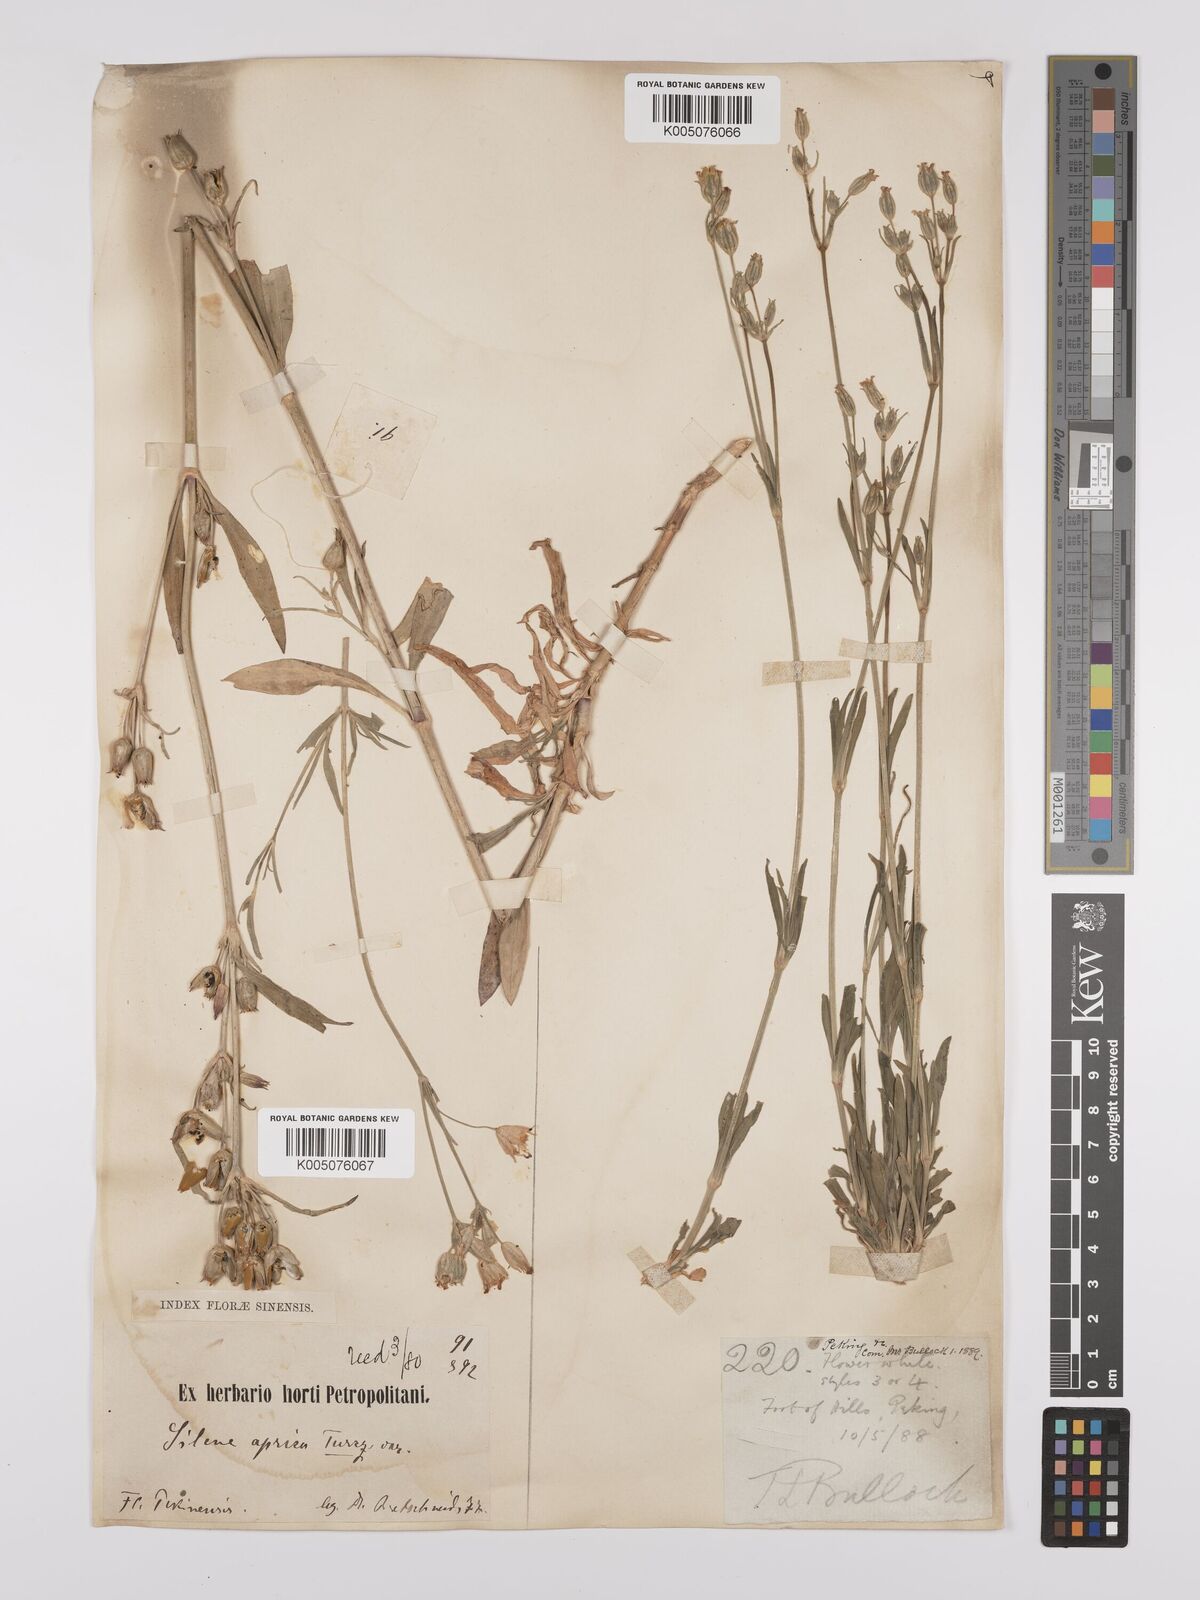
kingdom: Plantae
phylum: Tracheophyta
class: Magnoliopsida
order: Caryophyllales
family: Caryophyllaceae
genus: Silene
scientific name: Silene aprica
